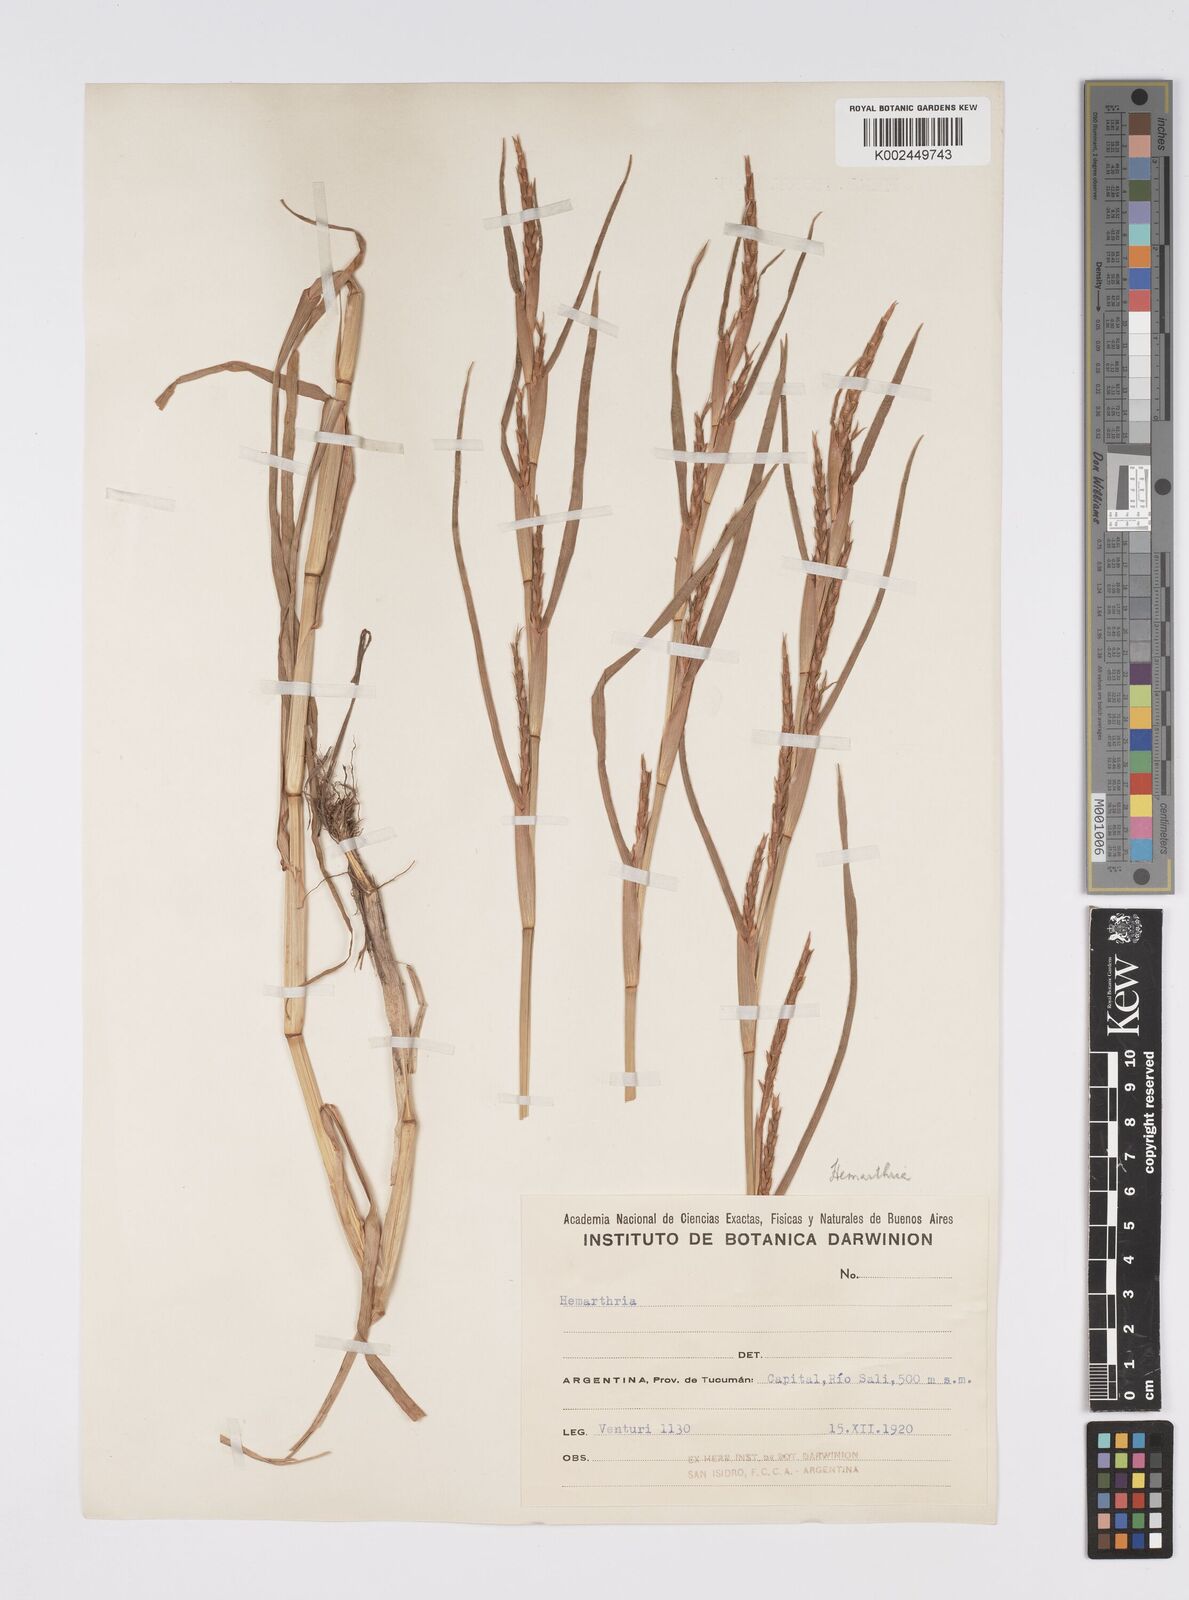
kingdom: Plantae
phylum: Tracheophyta
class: Liliopsida
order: Poales
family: Poaceae
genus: Hemarthria
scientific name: Hemarthria altissima
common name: African jointgrass
